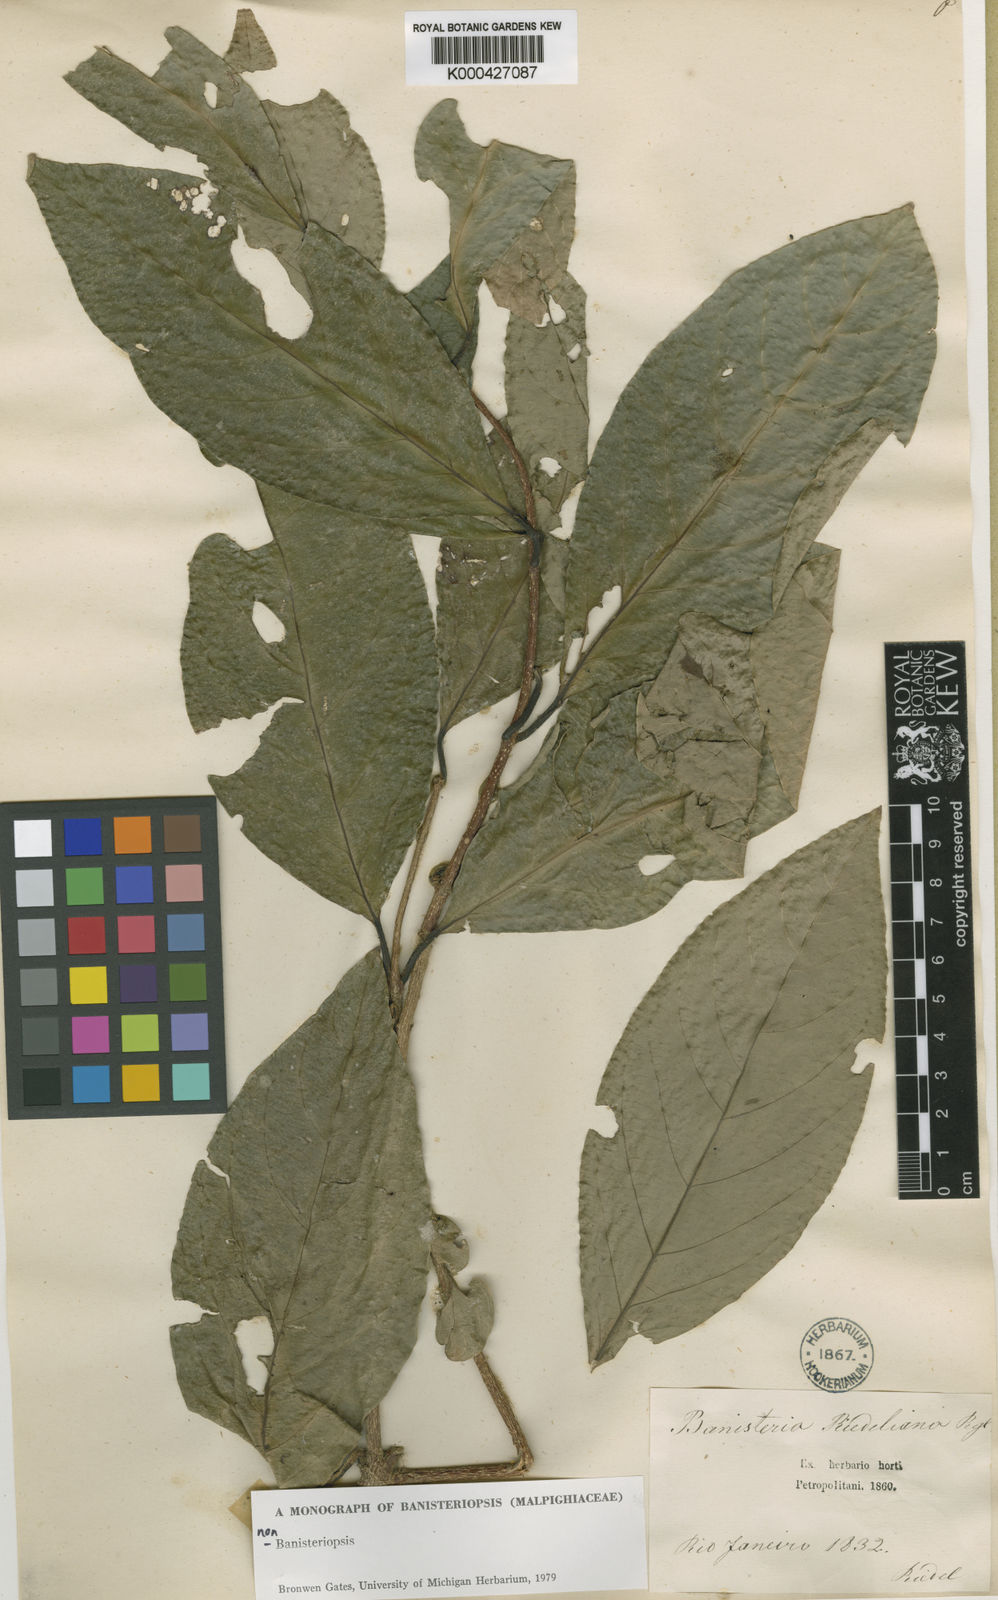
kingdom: Plantae
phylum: Tracheophyta
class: Magnoliopsida
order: Malpighiales
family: Malpighiaceae
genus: Heteropterys
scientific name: Heteropterys rosea
